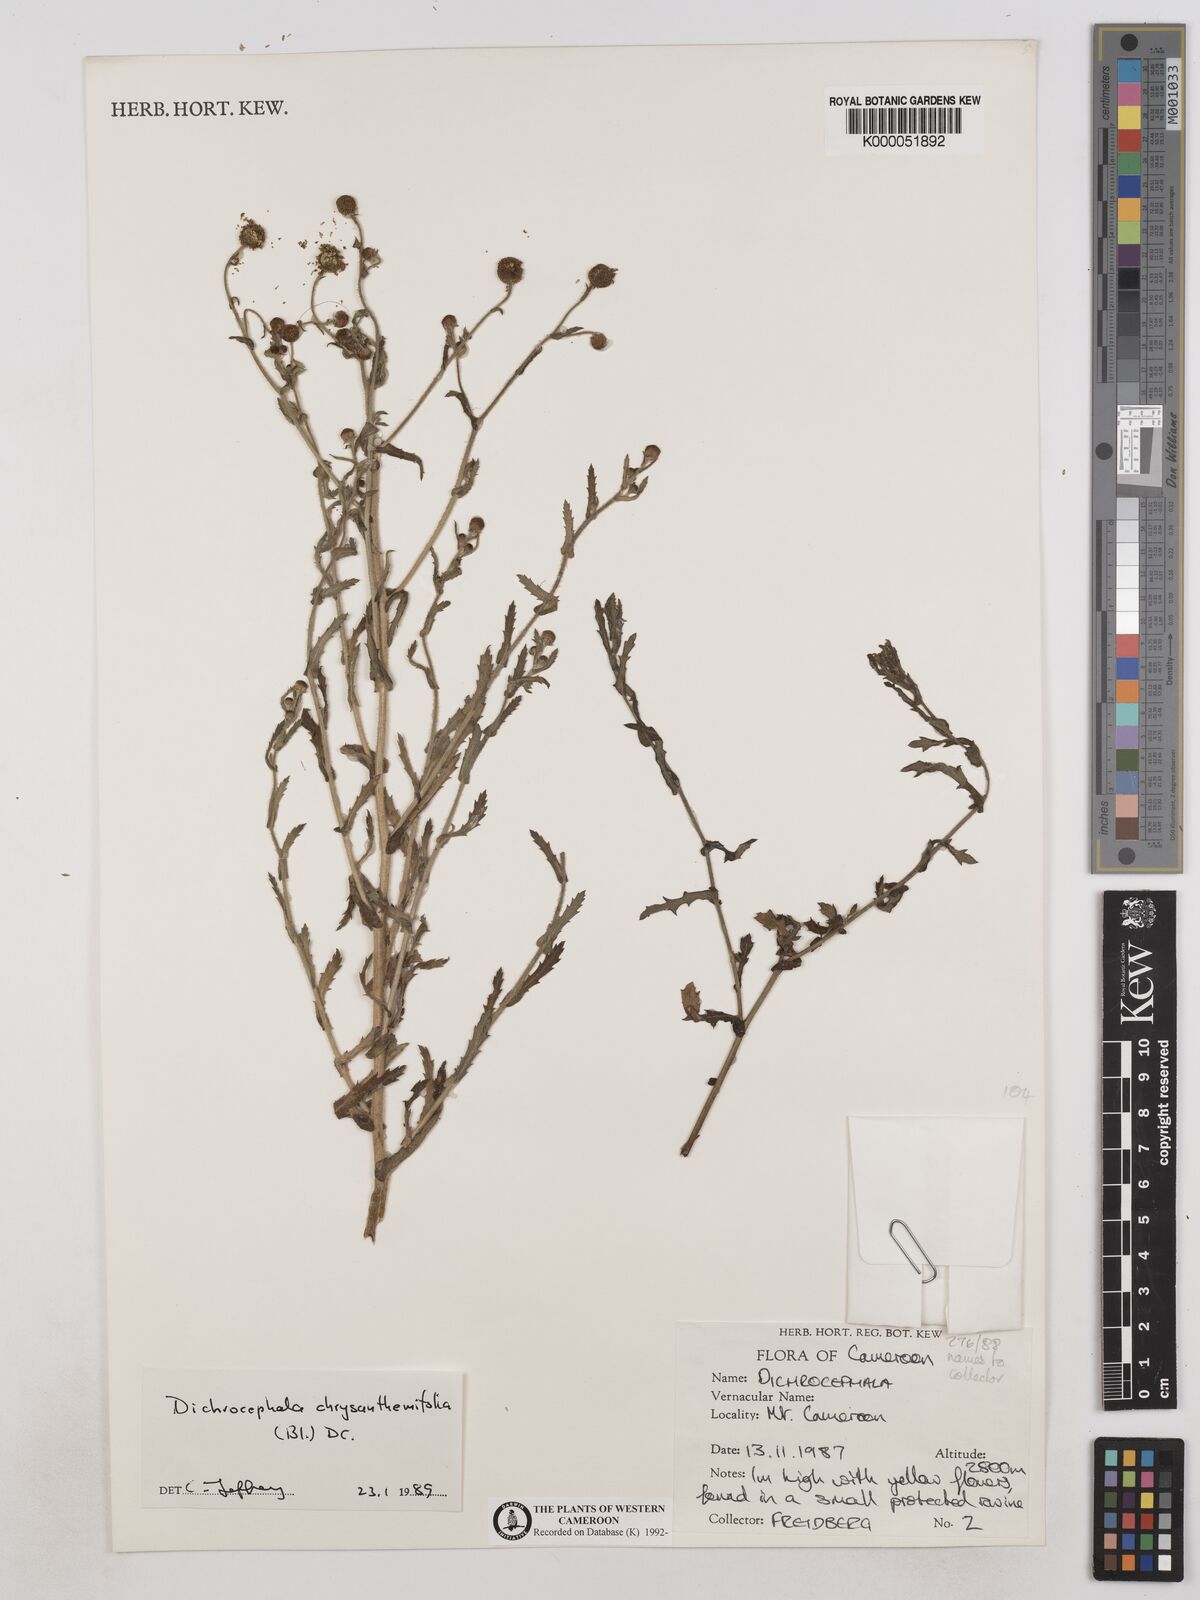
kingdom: Plantae
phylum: Tracheophyta
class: Magnoliopsida
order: Asterales
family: Asteraceae
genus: Dichrocephala
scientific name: Dichrocephala chrysanthemifolia
